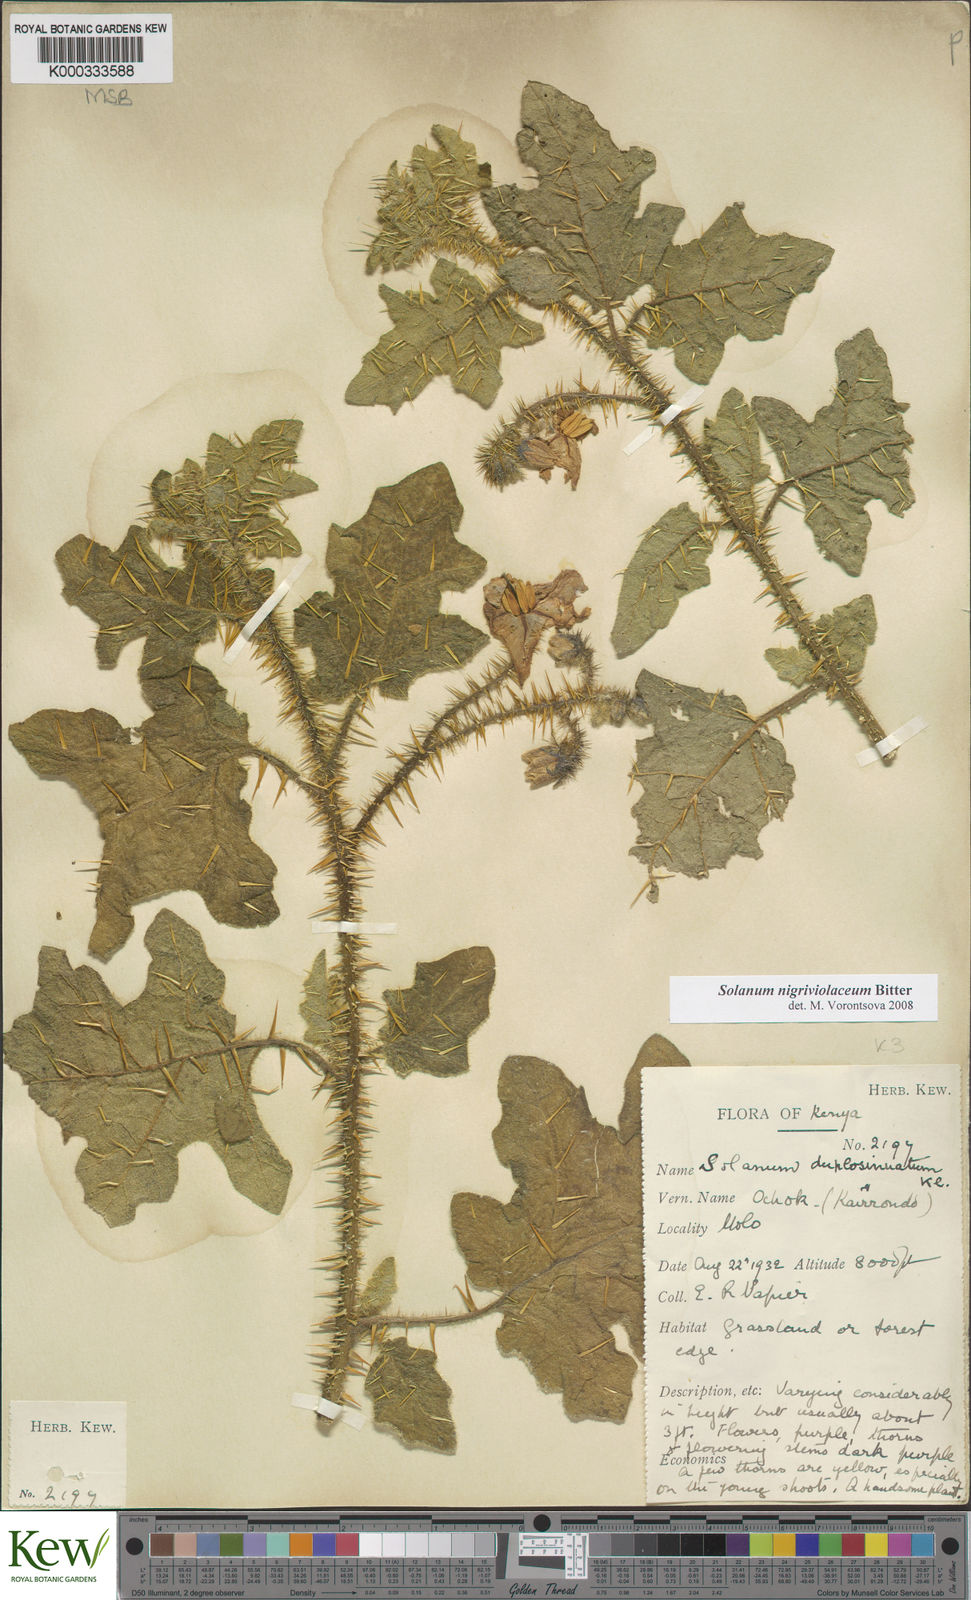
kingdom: Plantae
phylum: Tracheophyta
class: Magnoliopsida
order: Solanales
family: Solanaceae
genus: Solanum
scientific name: Solanum nigriviolaceum
